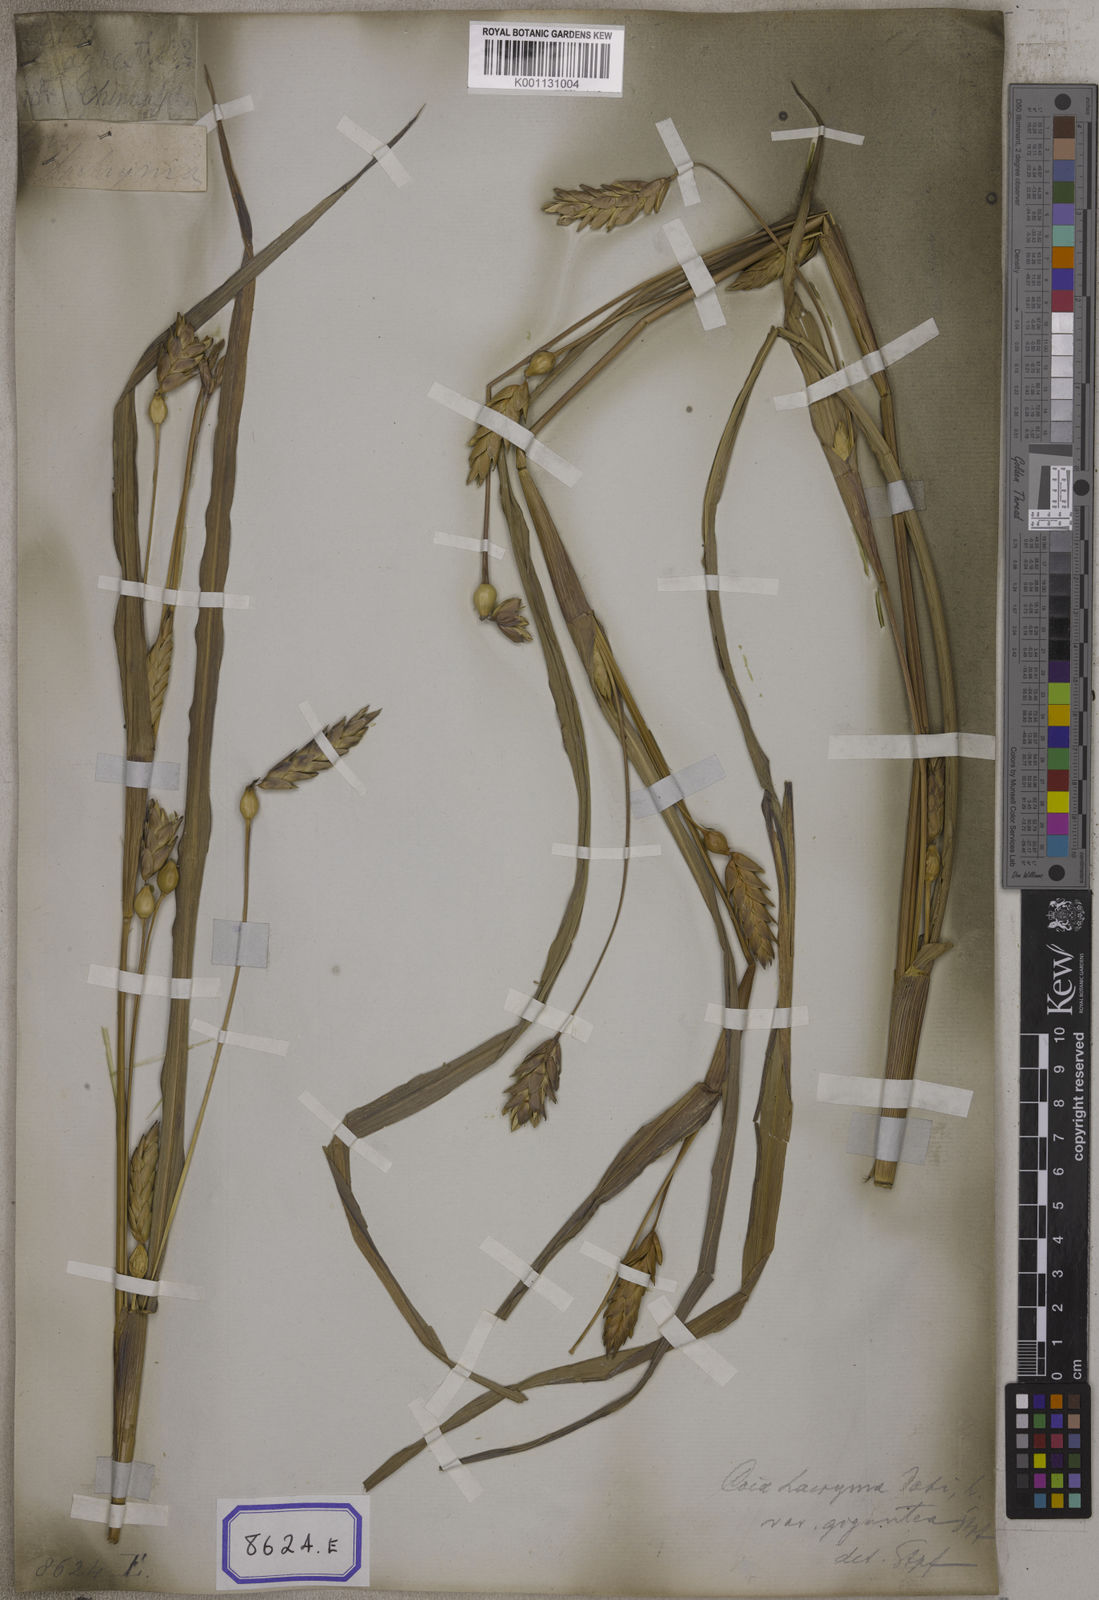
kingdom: Plantae
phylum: Tracheophyta
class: Liliopsida
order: Poales
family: Poaceae
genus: Polytoca
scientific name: Polytoca gigantea
